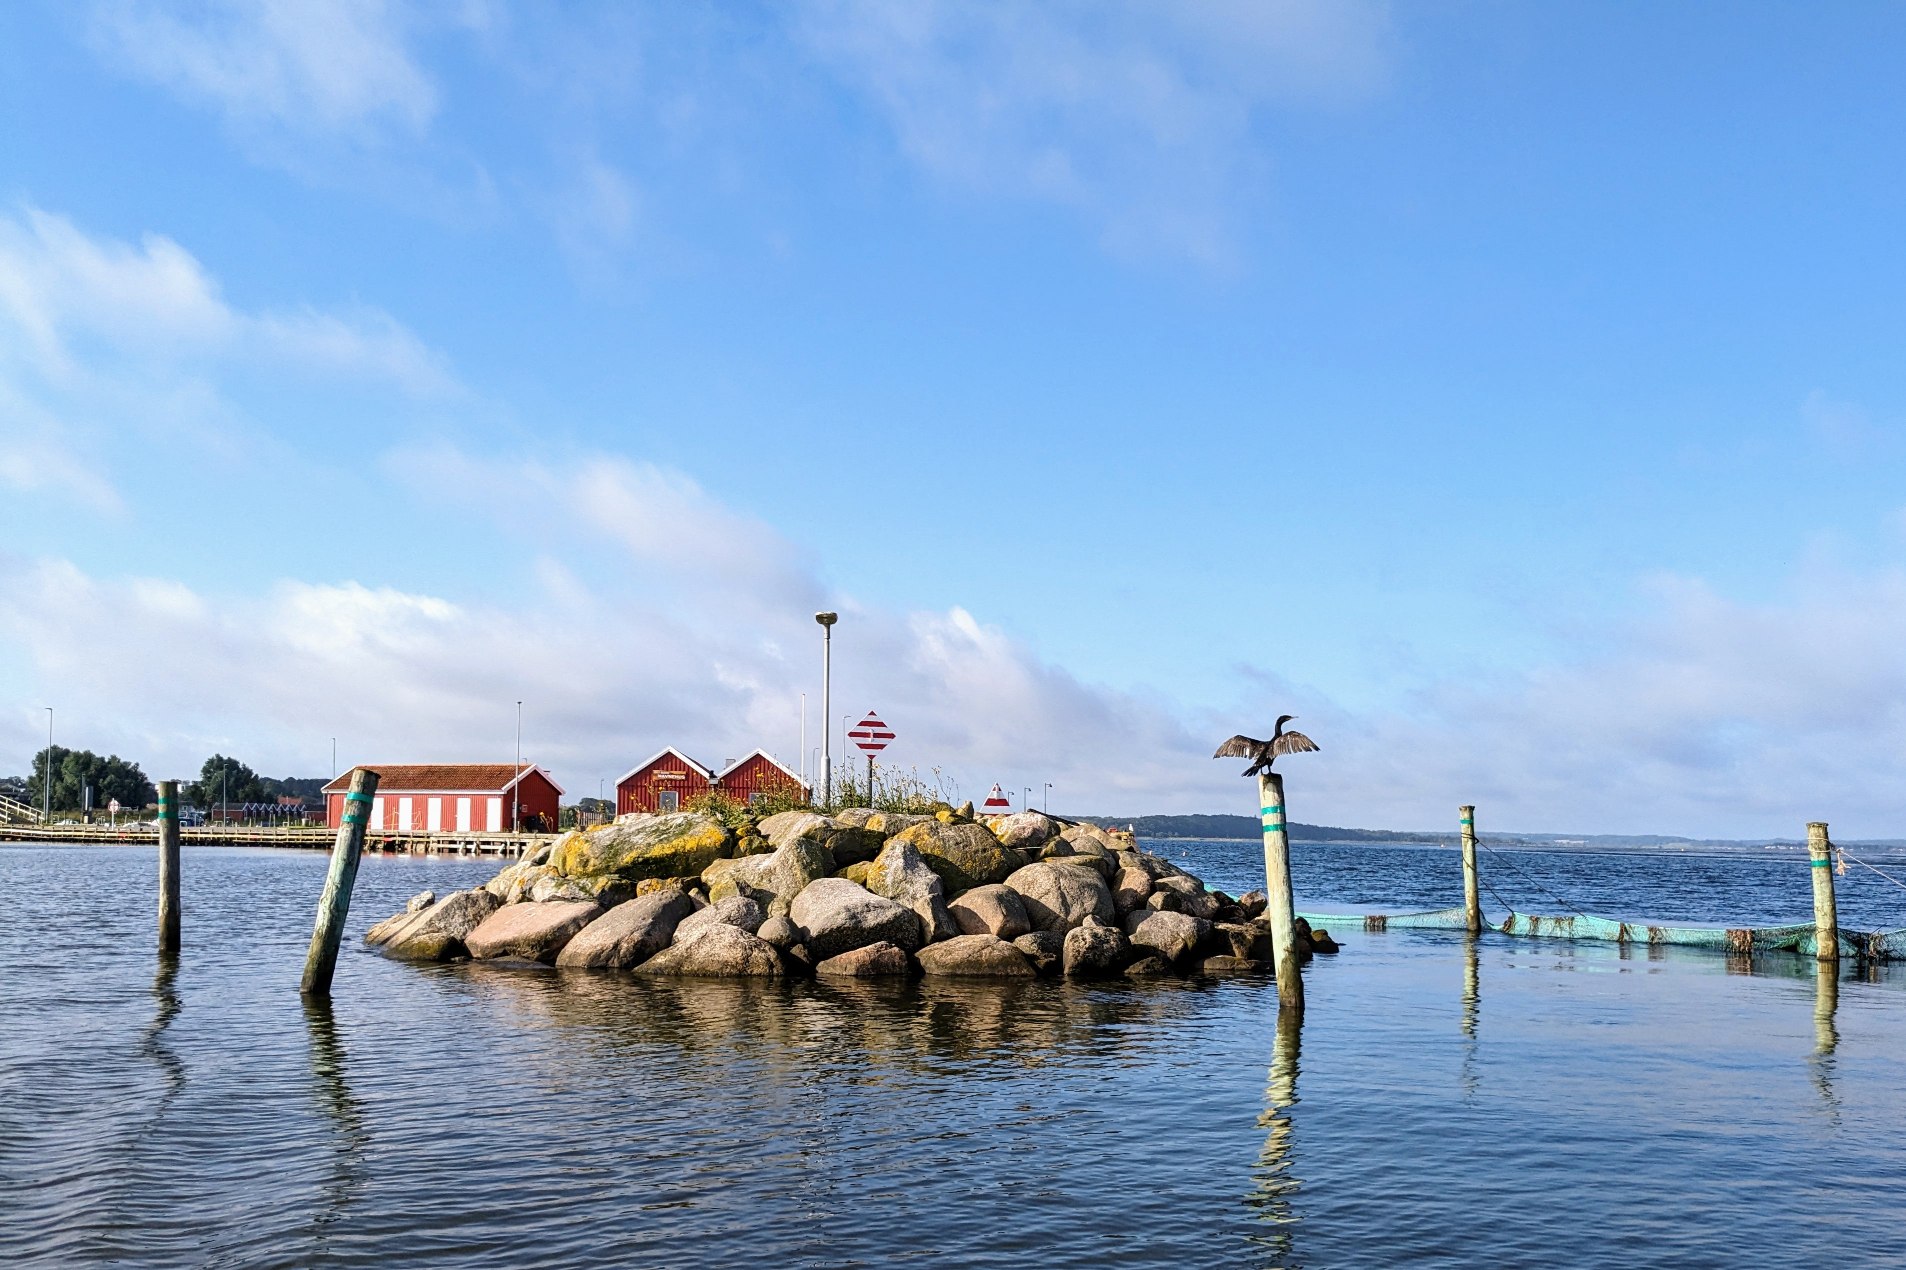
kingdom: Animalia
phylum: Chordata
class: Aves
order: Suliformes
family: Phalacrocoracidae
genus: Phalacrocorax
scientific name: Phalacrocorax carbo
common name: Skarv
